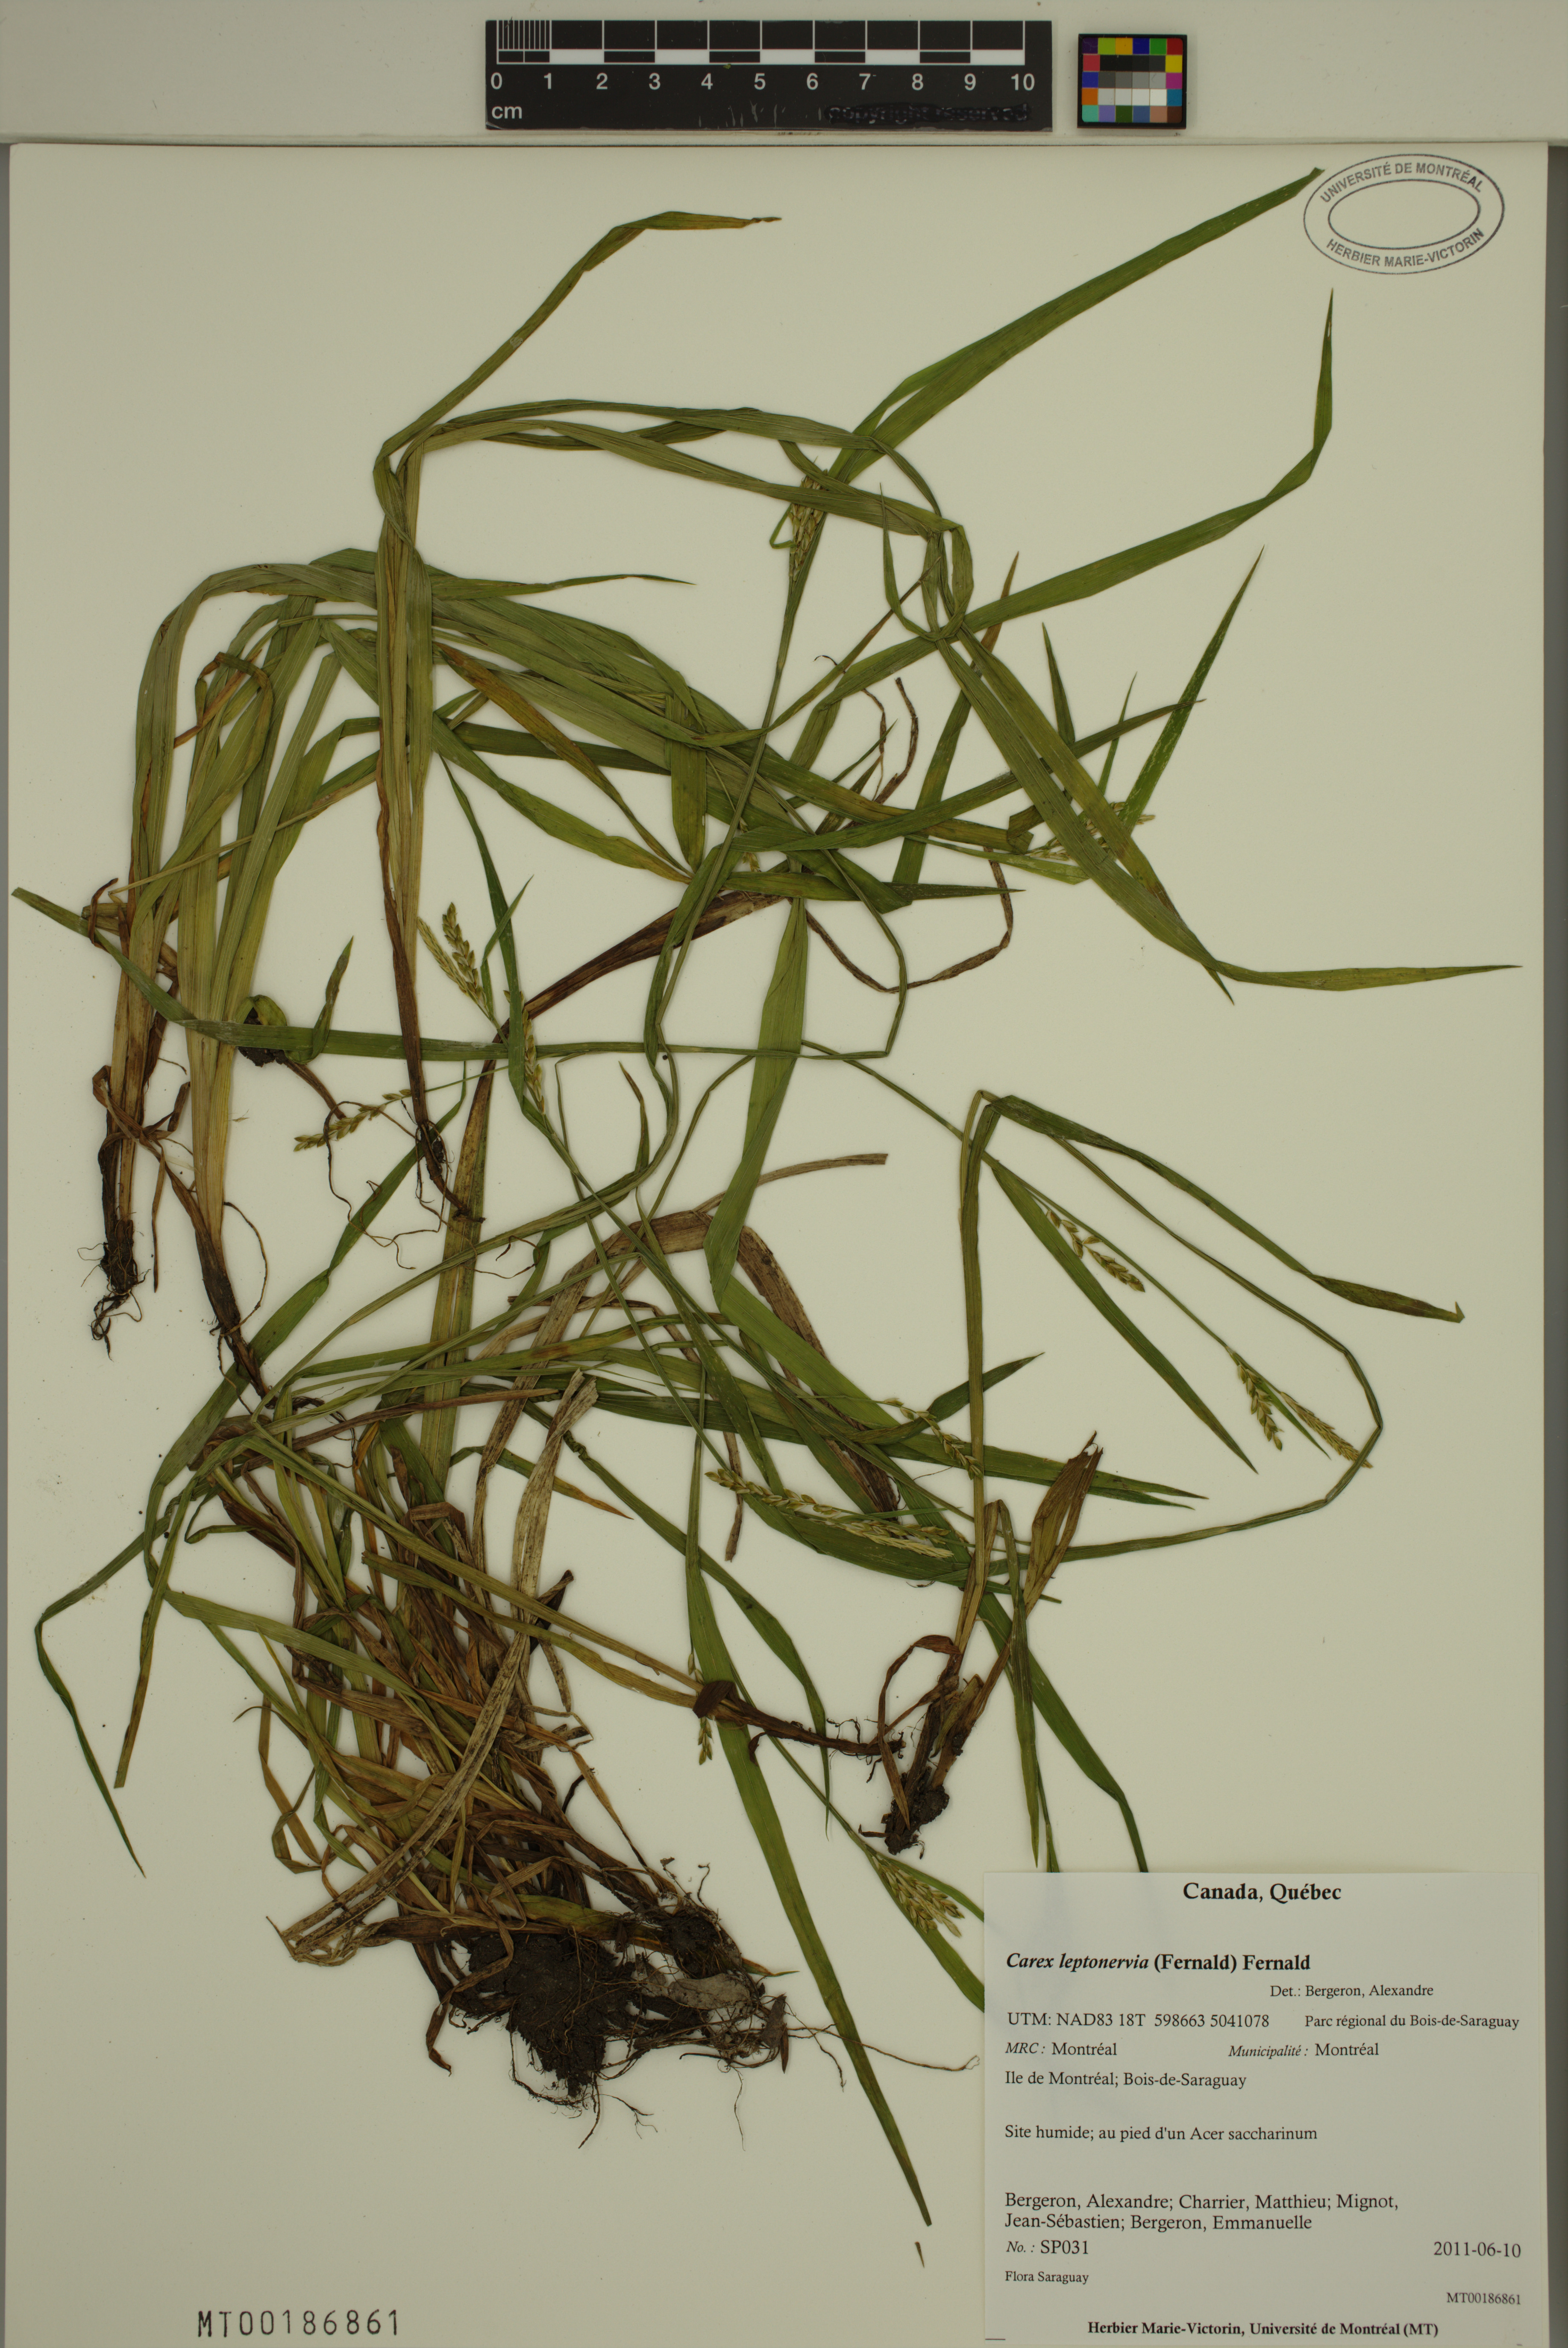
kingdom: Plantae
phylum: Tracheophyta
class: Liliopsida
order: Poales
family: Cyperaceae
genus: Carex
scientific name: Carex leptonervia
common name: Few-nerved wood sedge
